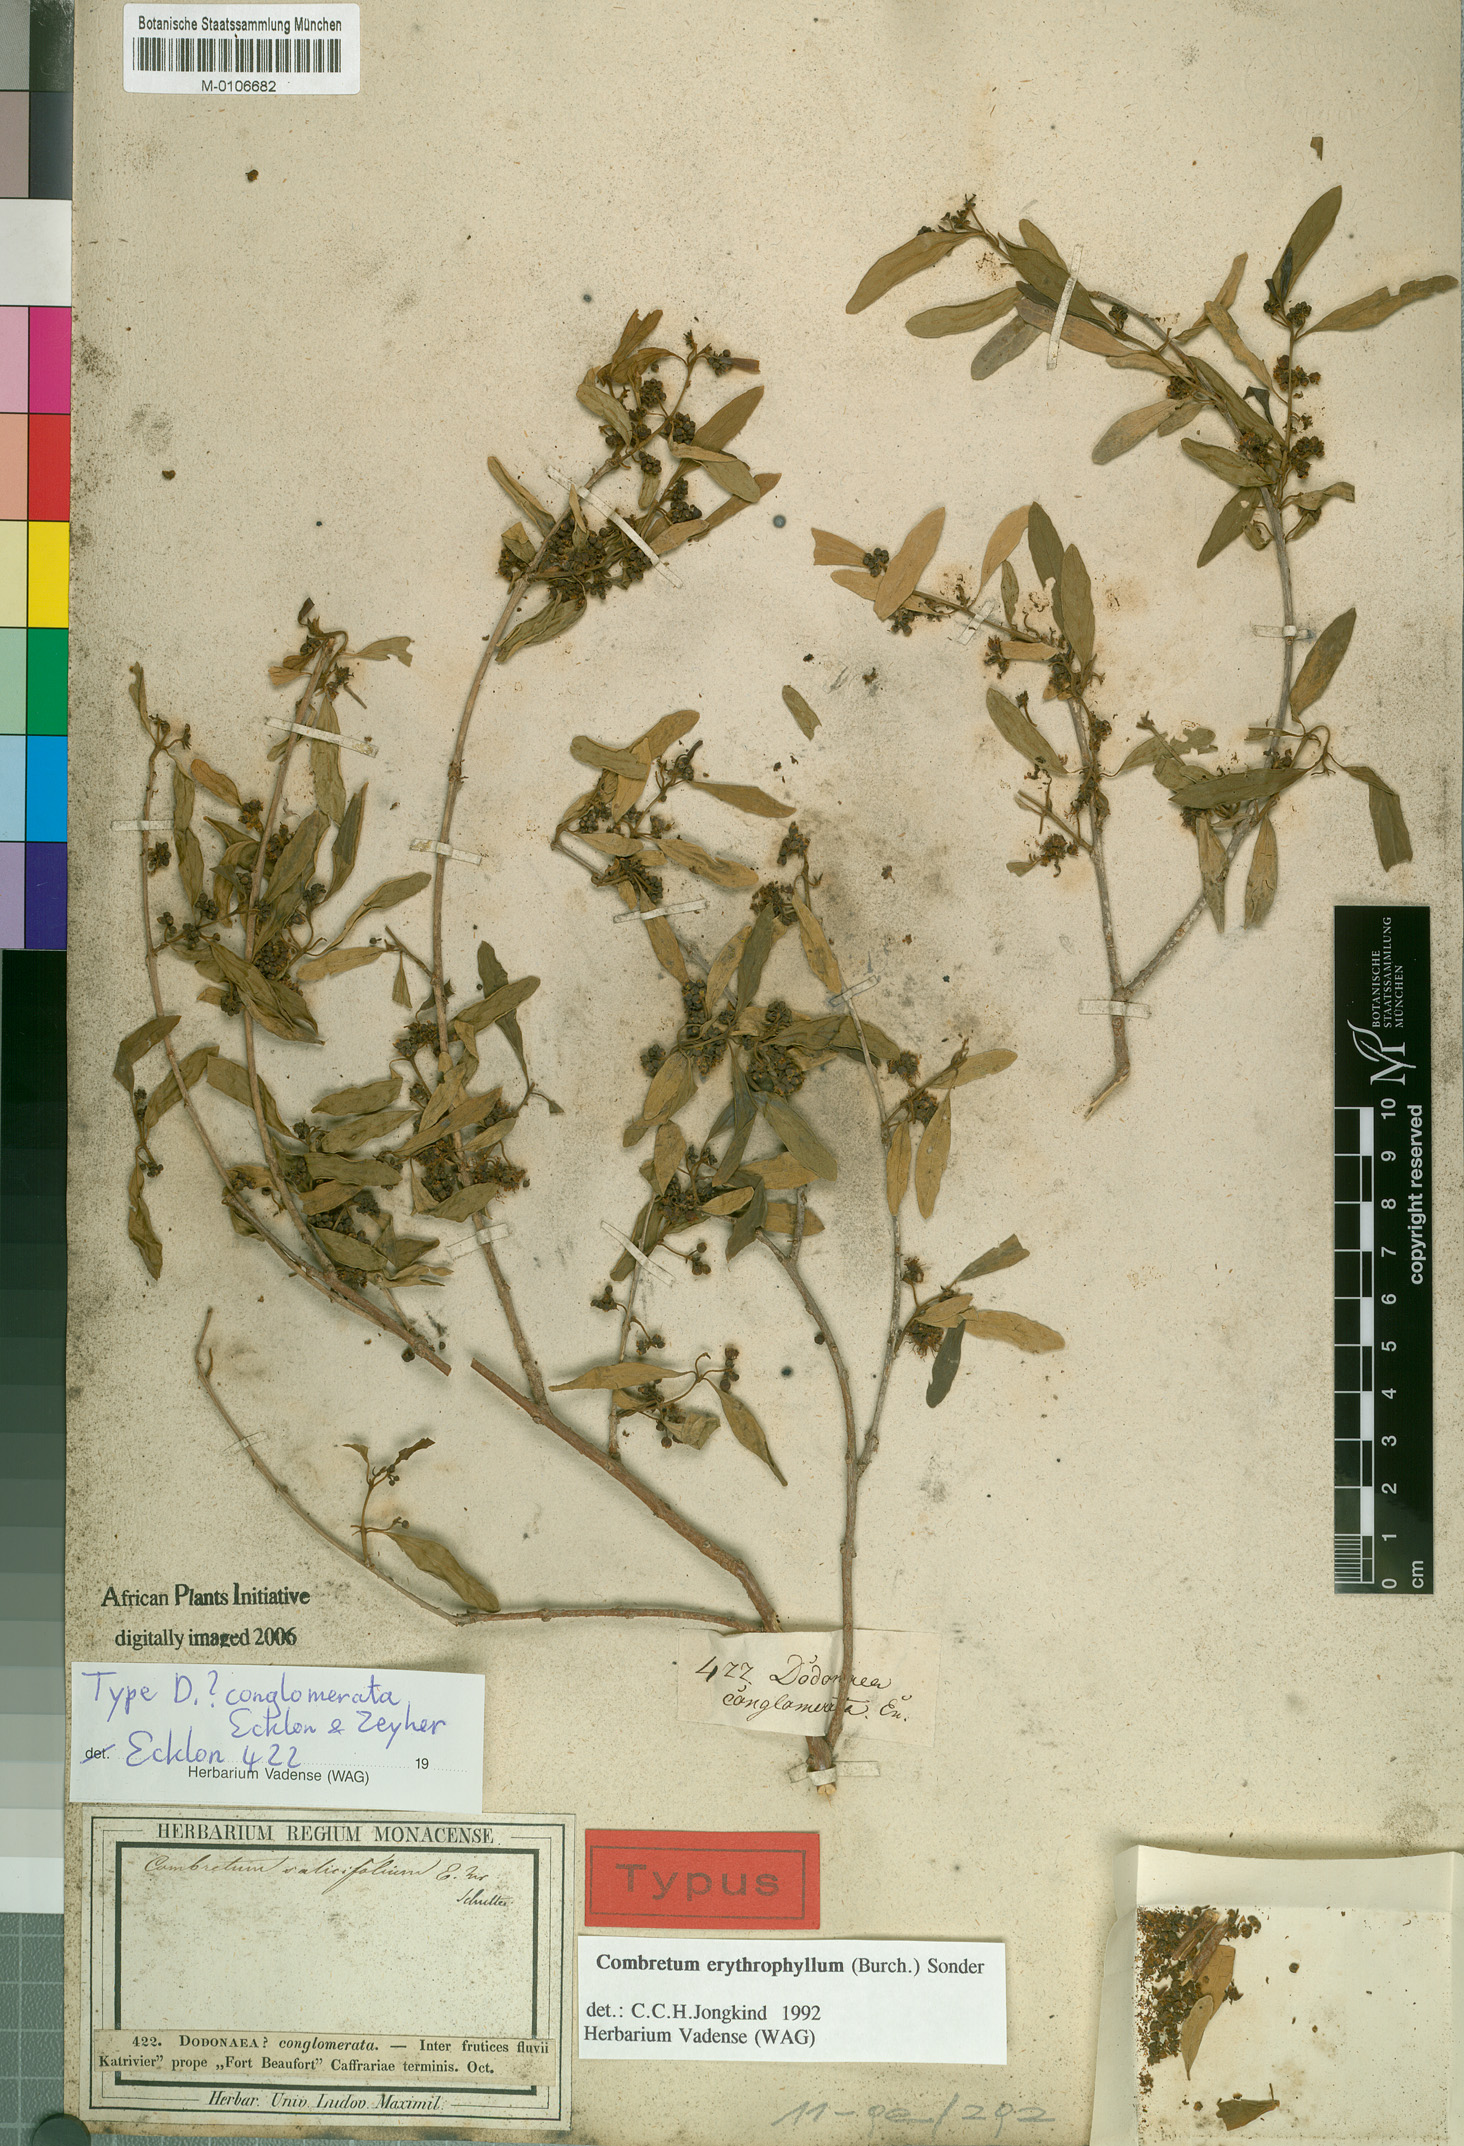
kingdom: Plantae
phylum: Tracheophyta
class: Magnoliopsida
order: Myrtales
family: Combretaceae
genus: Combretum
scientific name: Combretum erythrophyllum
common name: Bush-willow
